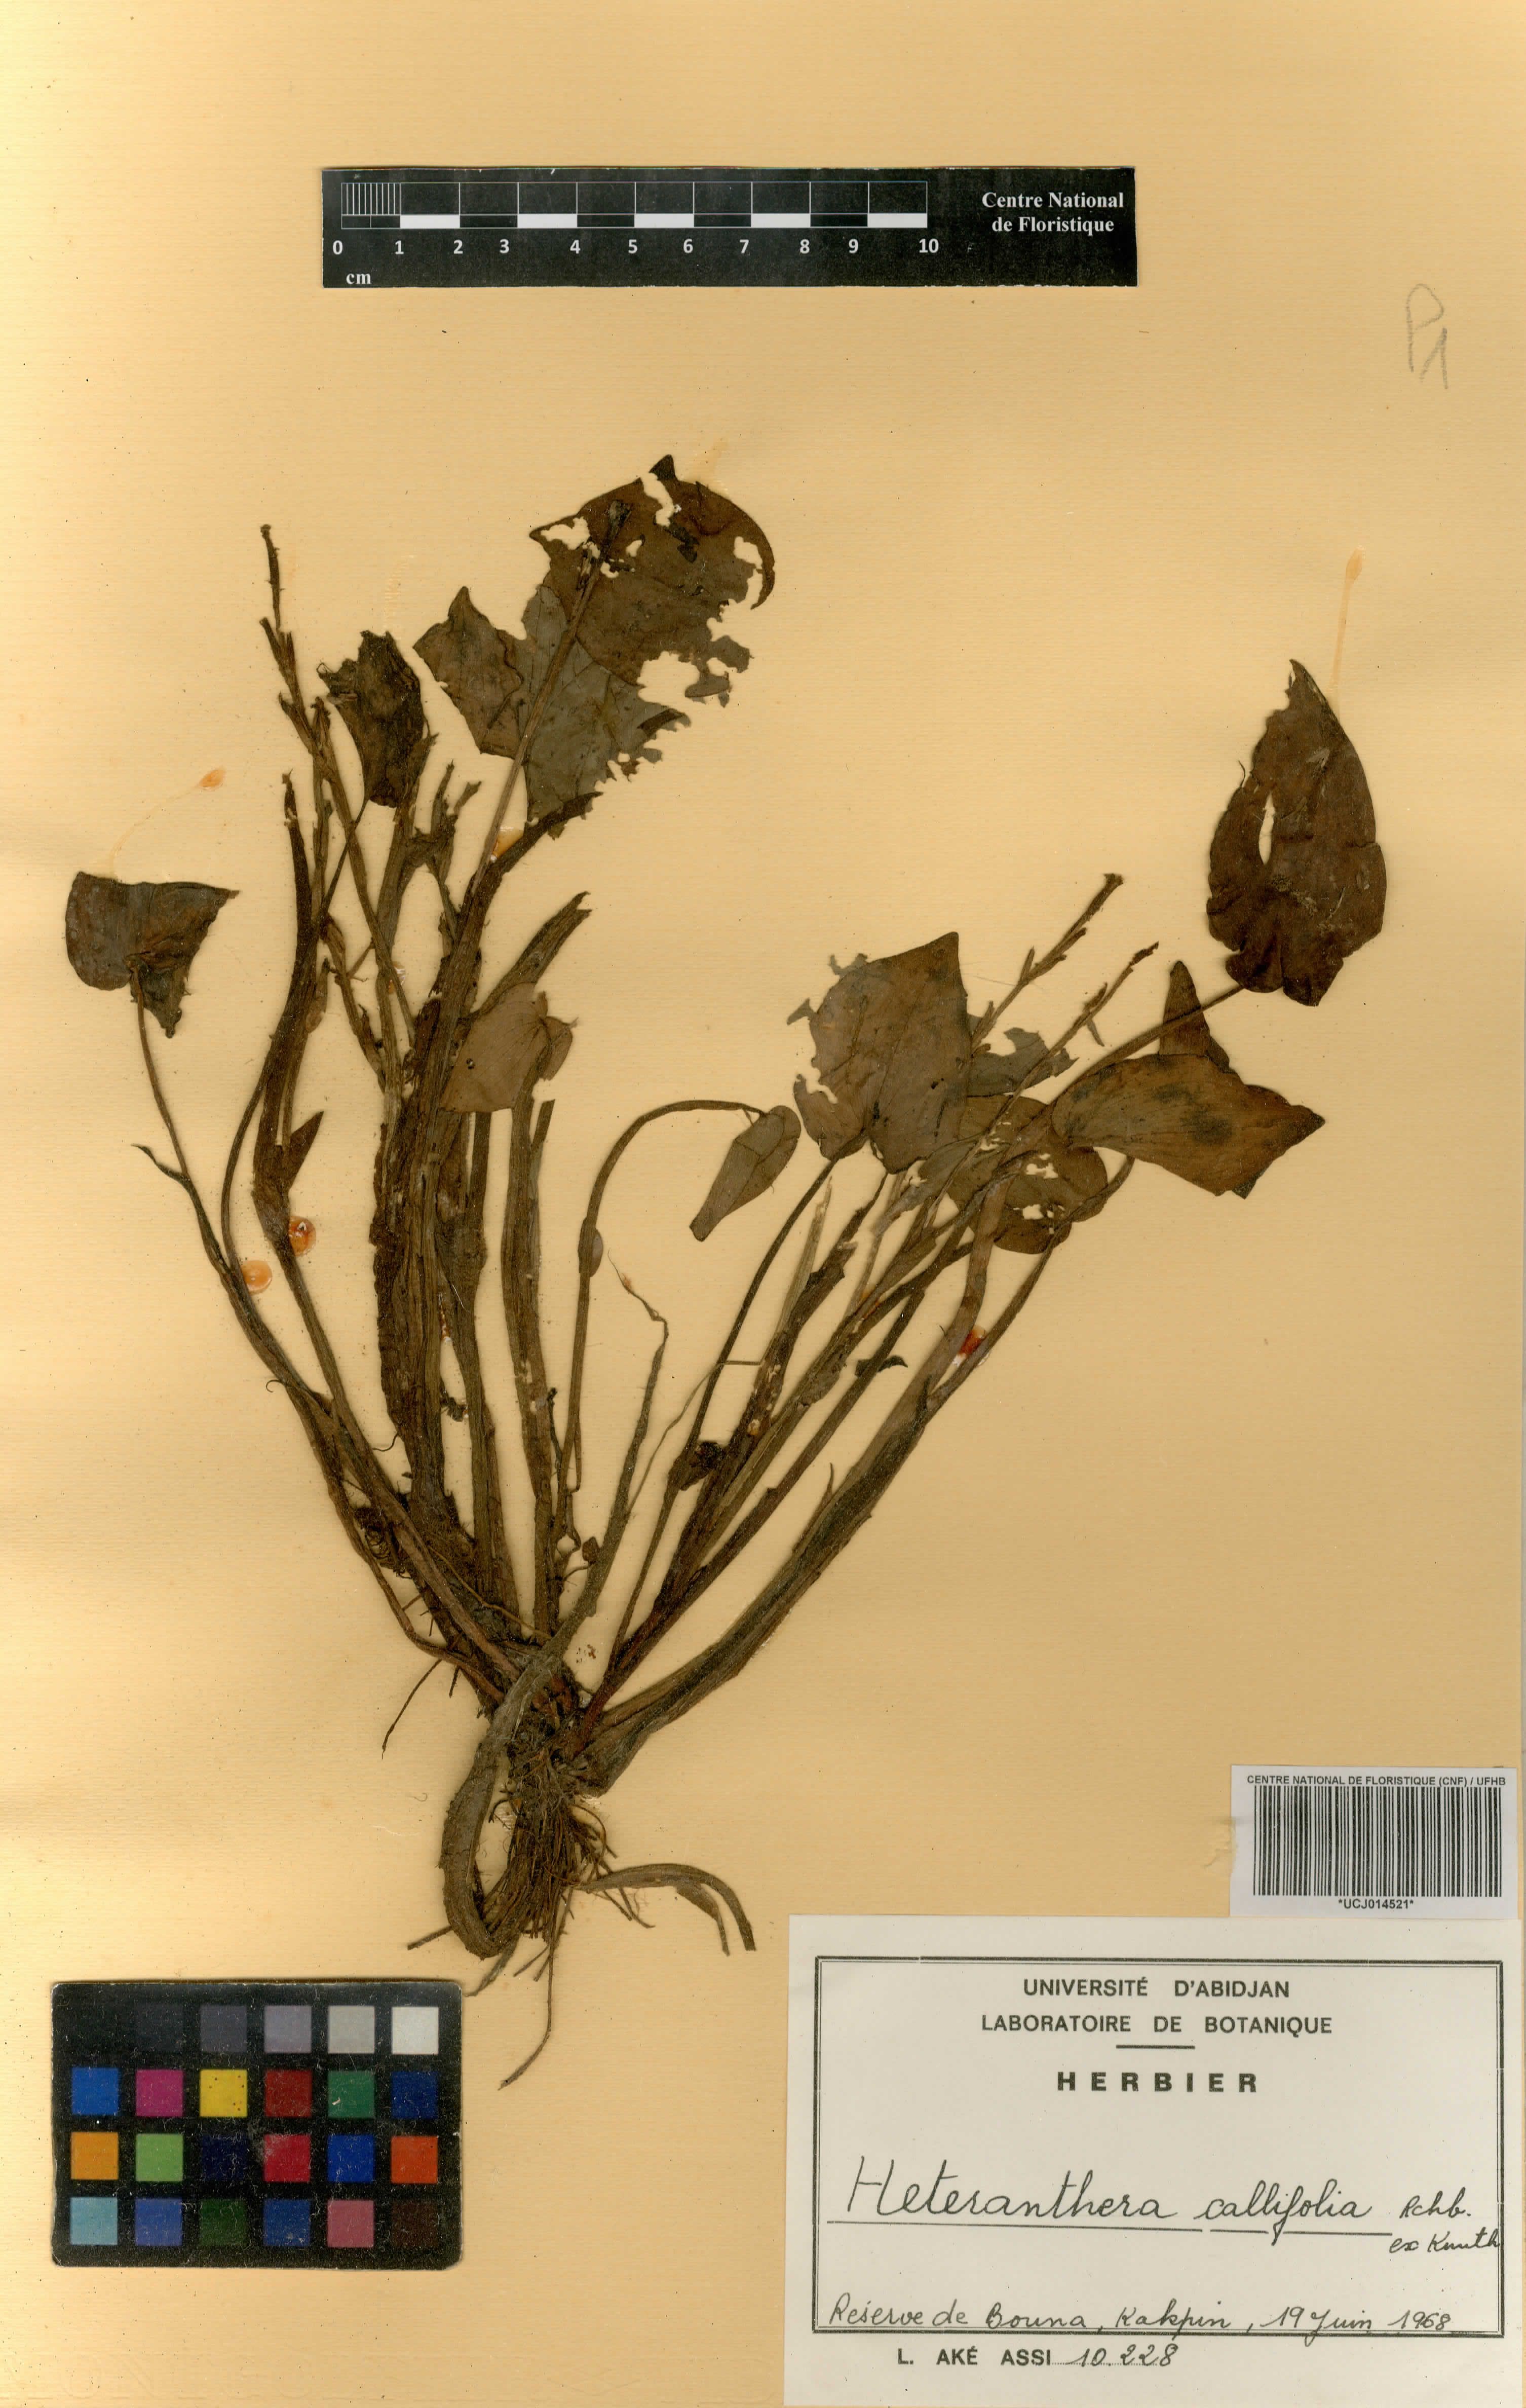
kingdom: Plantae
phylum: Tracheophyta
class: Liliopsida
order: Commelinales
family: Pontederiaceae
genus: Heteranthera
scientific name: Heteranthera callifolia
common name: Mud plantain
